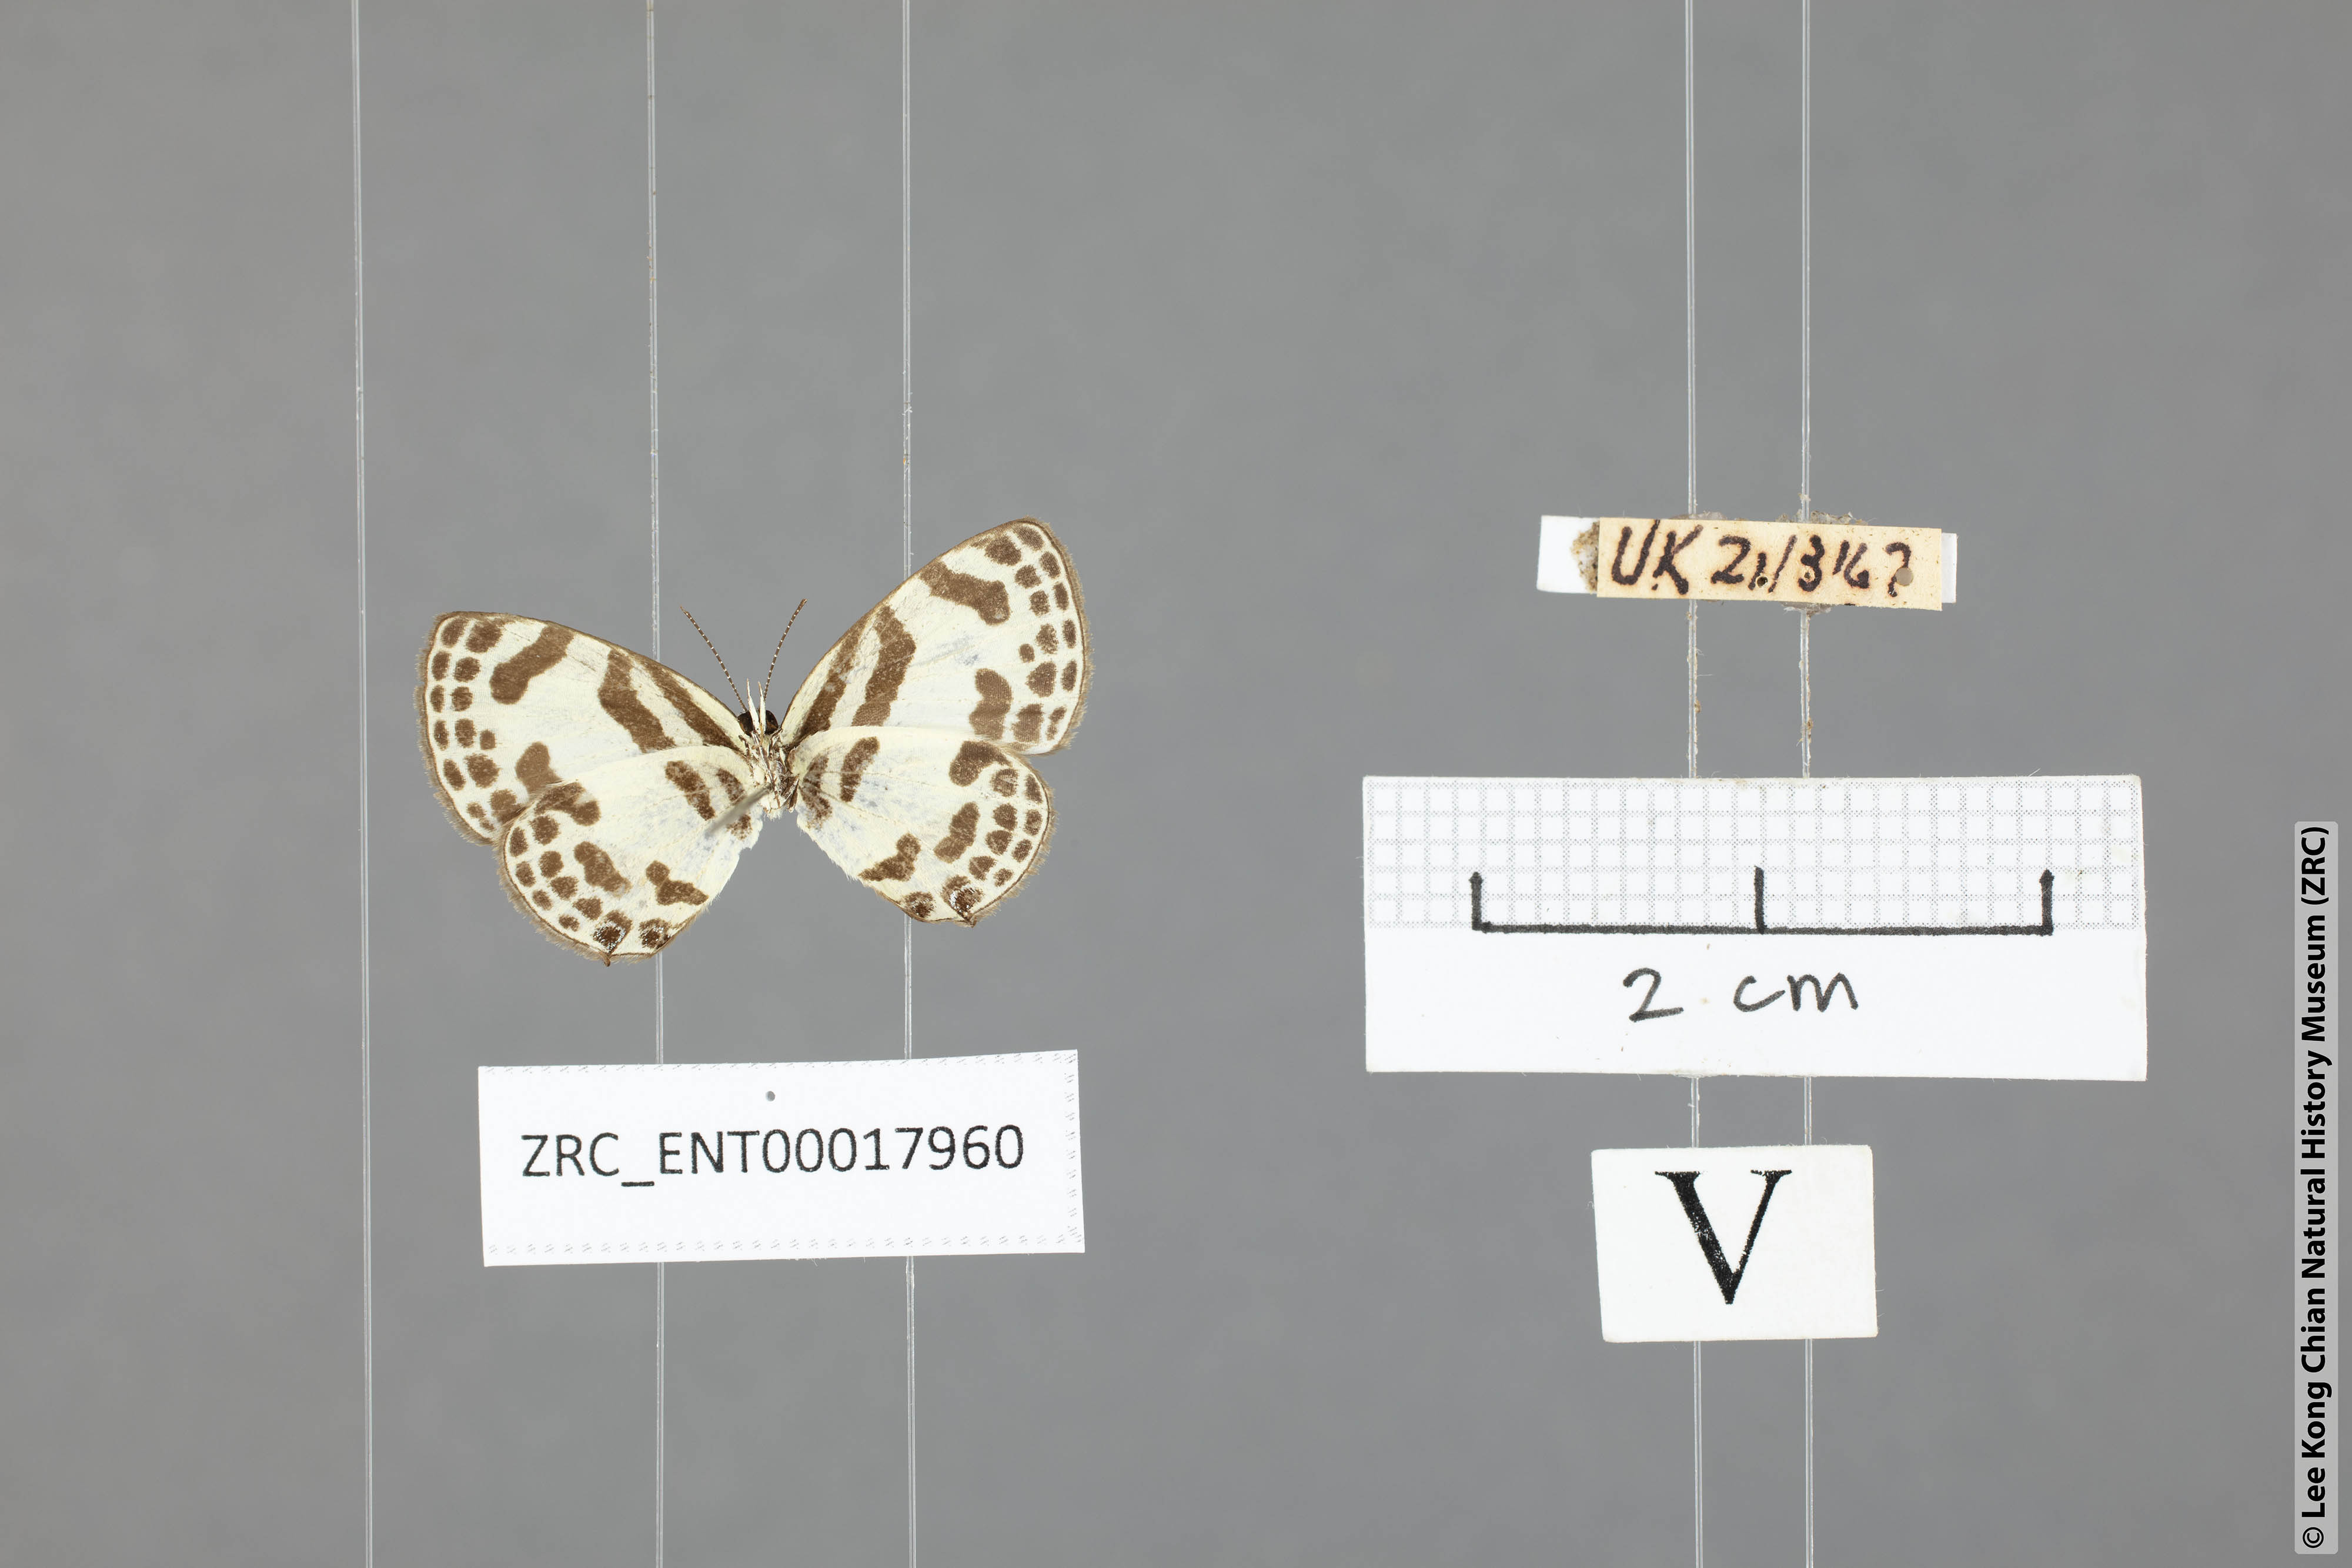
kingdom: Animalia
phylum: Arthropoda
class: Insecta
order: Lepidoptera
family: Lycaenidae
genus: Discolampa
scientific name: Discolampa ethion
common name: Banded blue pierrot
